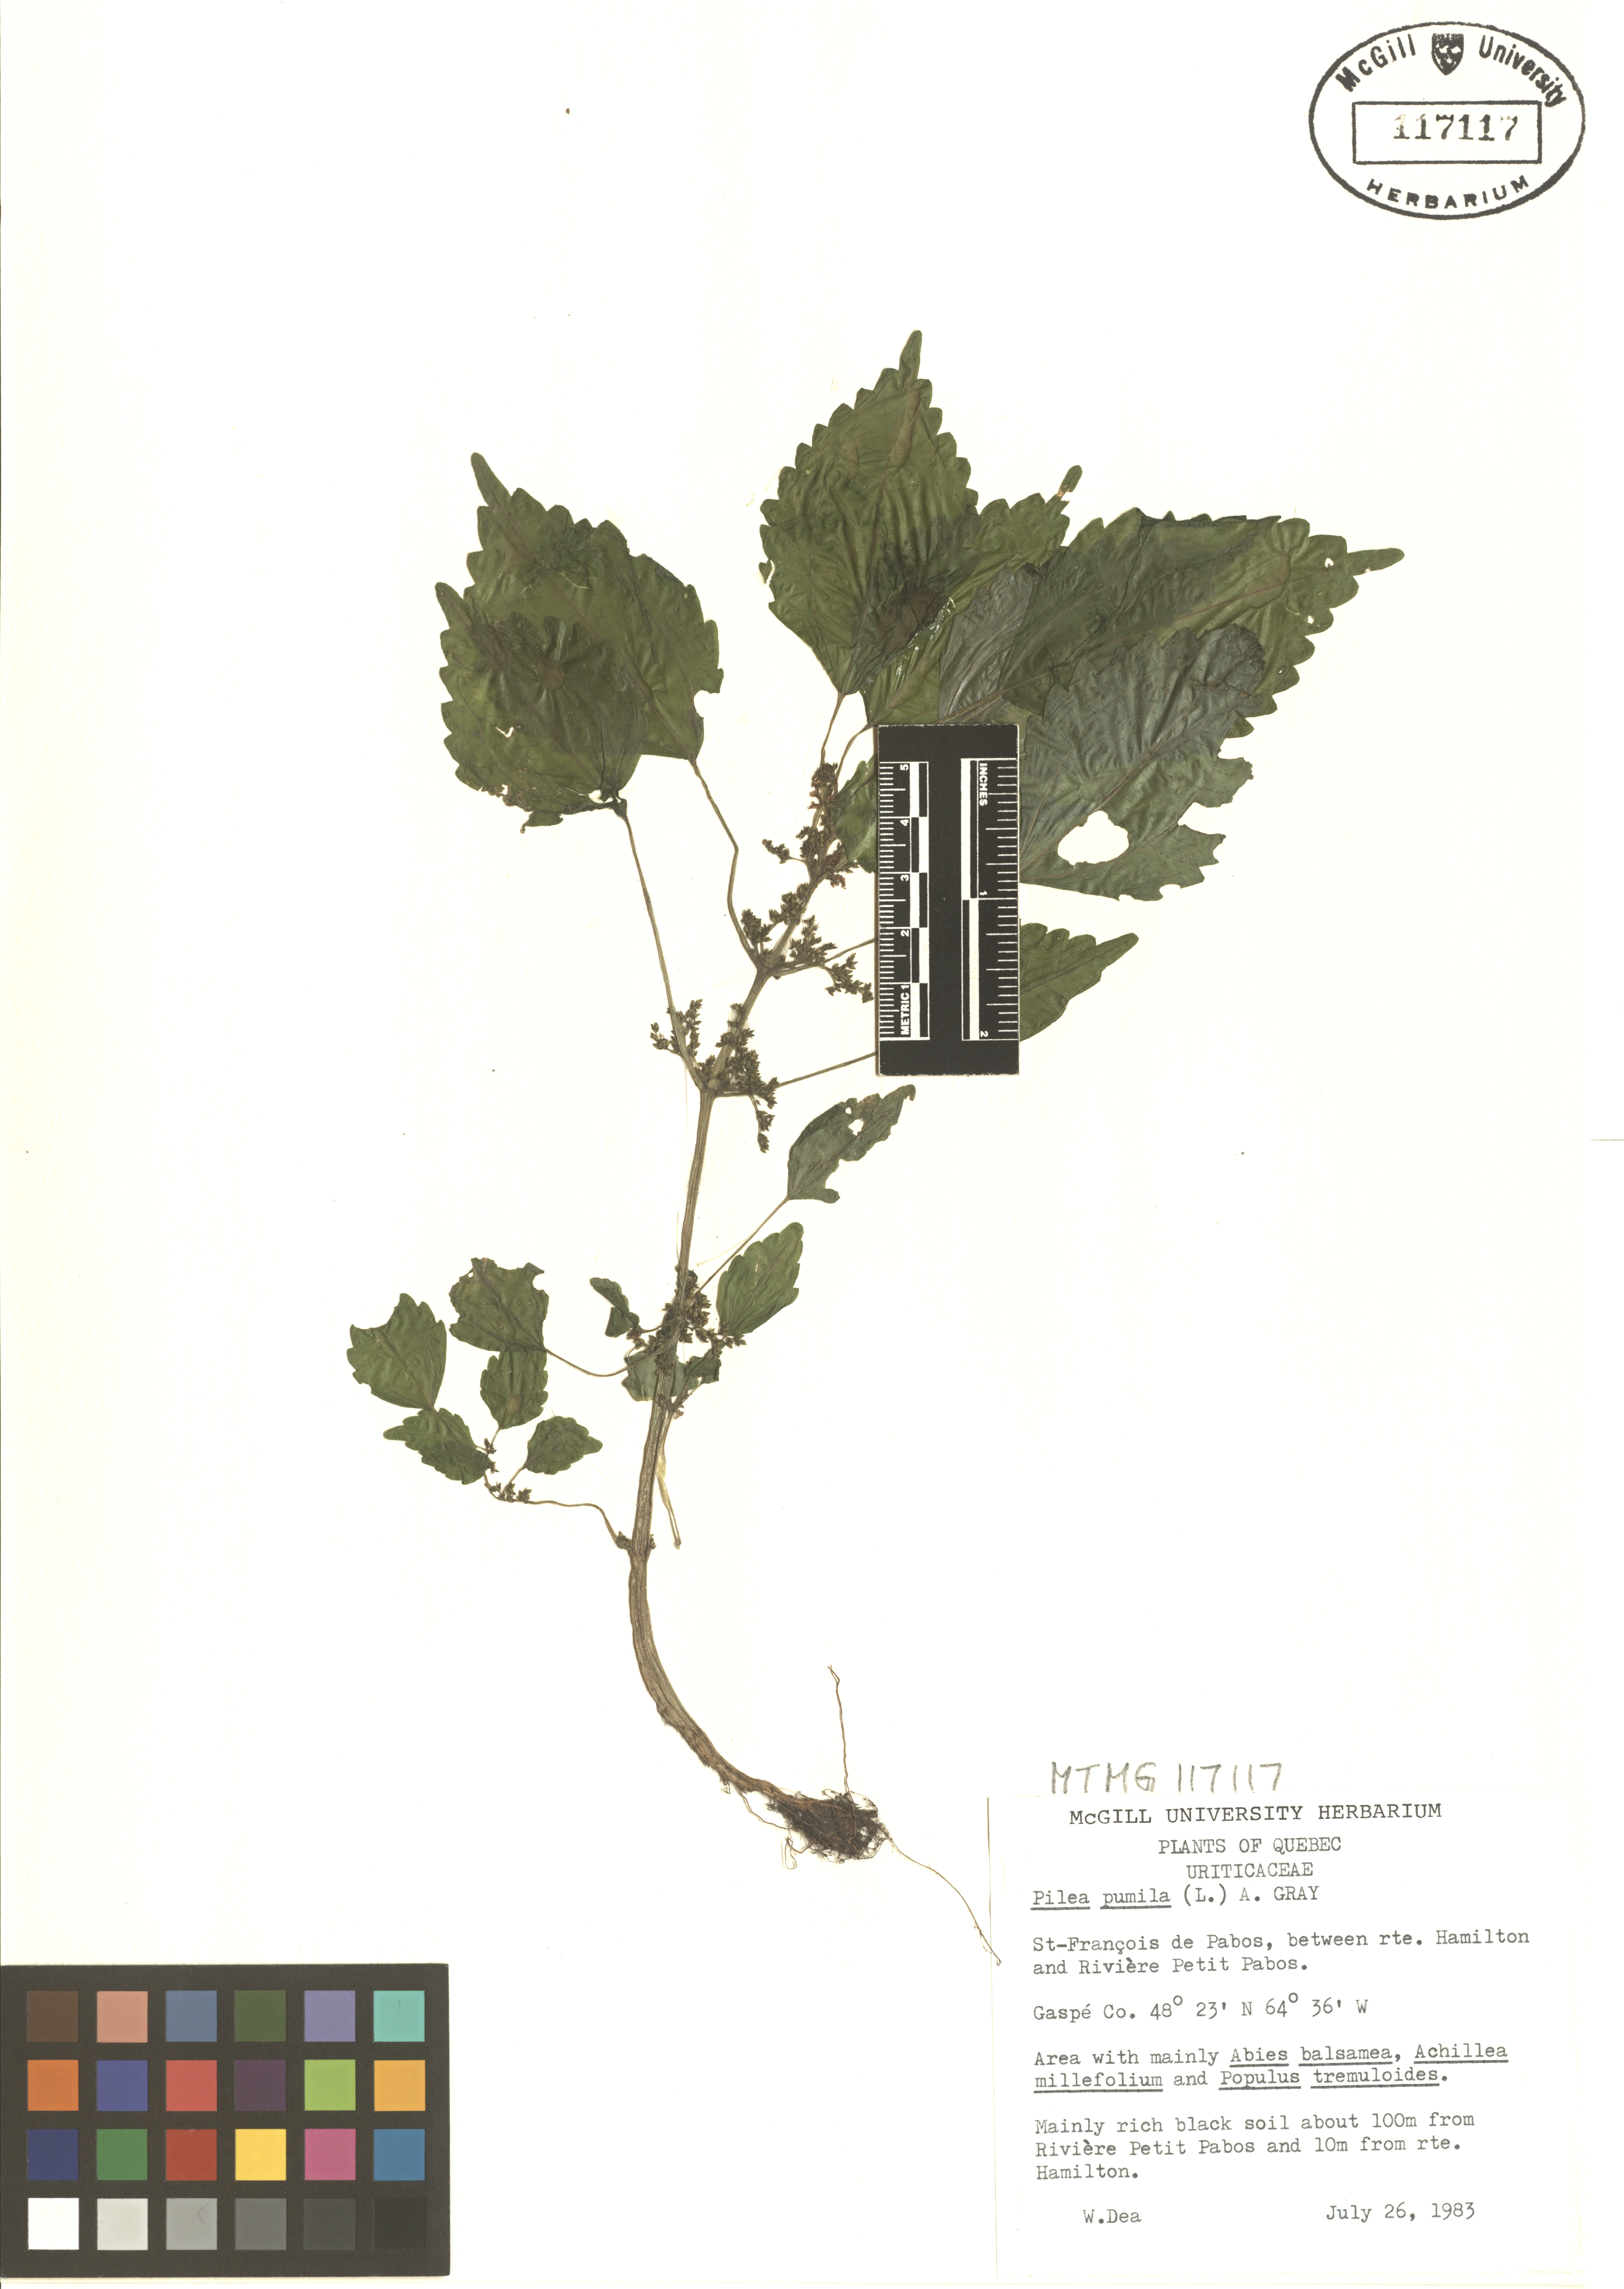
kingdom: Plantae
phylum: Tracheophyta
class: Magnoliopsida
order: Rosales
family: Urticaceae
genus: Pilea
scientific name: Pilea pumila
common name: Clearweed
